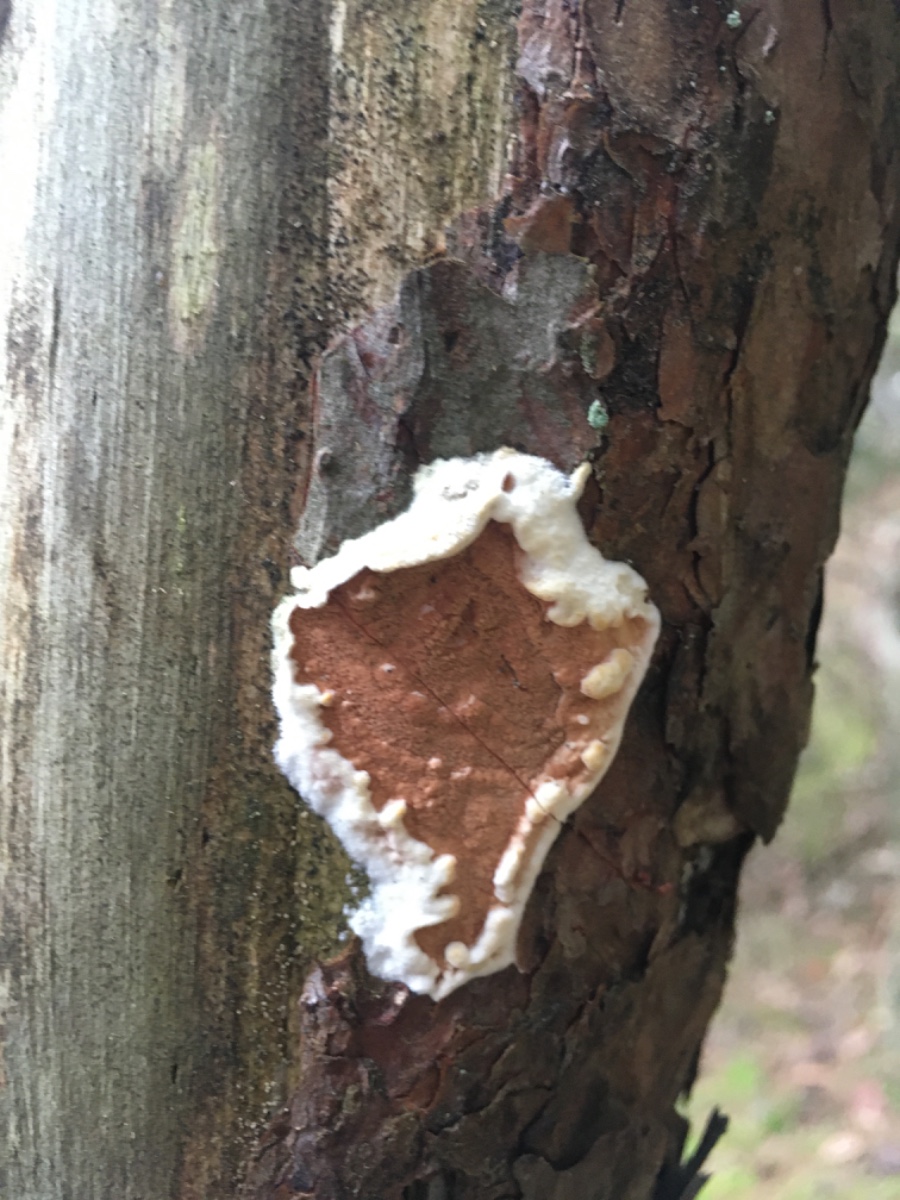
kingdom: Fungi
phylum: Basidiomycota
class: Agaricomycetes
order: Polyporales
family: Irpicaceae
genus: Meruliopsis
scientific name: Meruliopsis taxicola
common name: purpurbrun foldporesvamp
